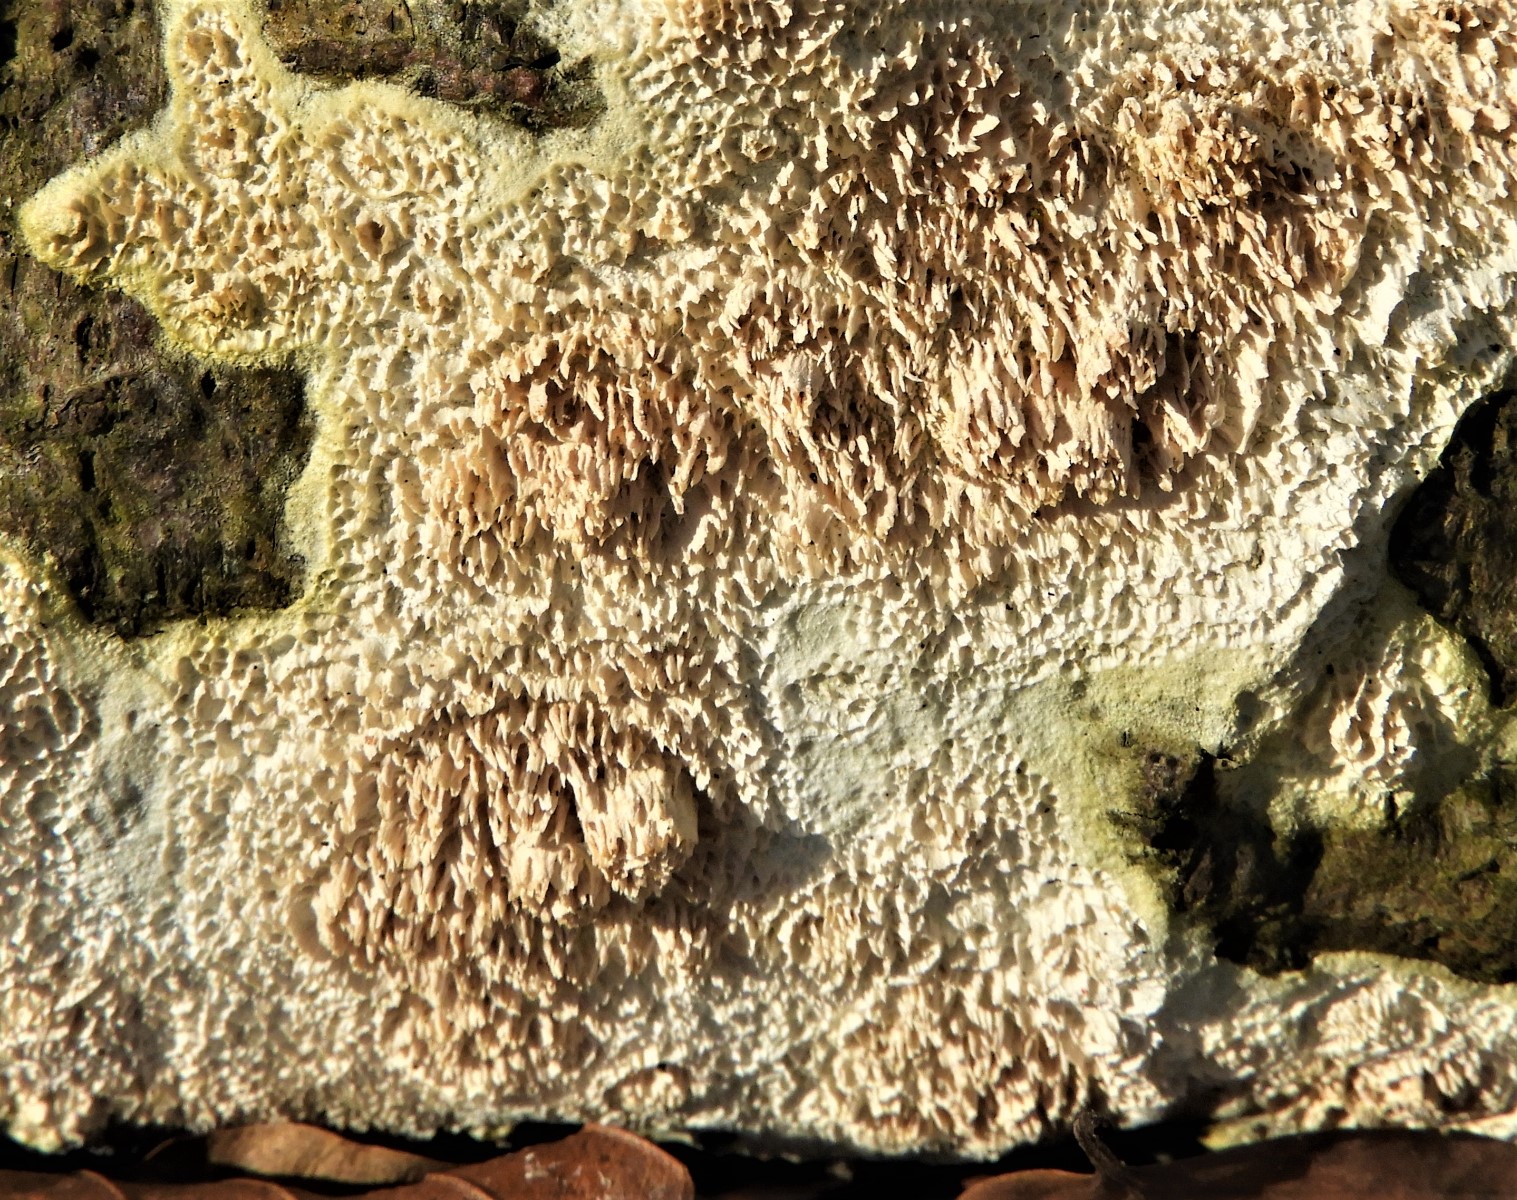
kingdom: Fungi
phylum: Basidiomycota
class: Agaricomycetes
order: Hymenochaetales
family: Schizoporaceae
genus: Xylodon
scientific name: Xylodon radula
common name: grovtandet kalkskind
